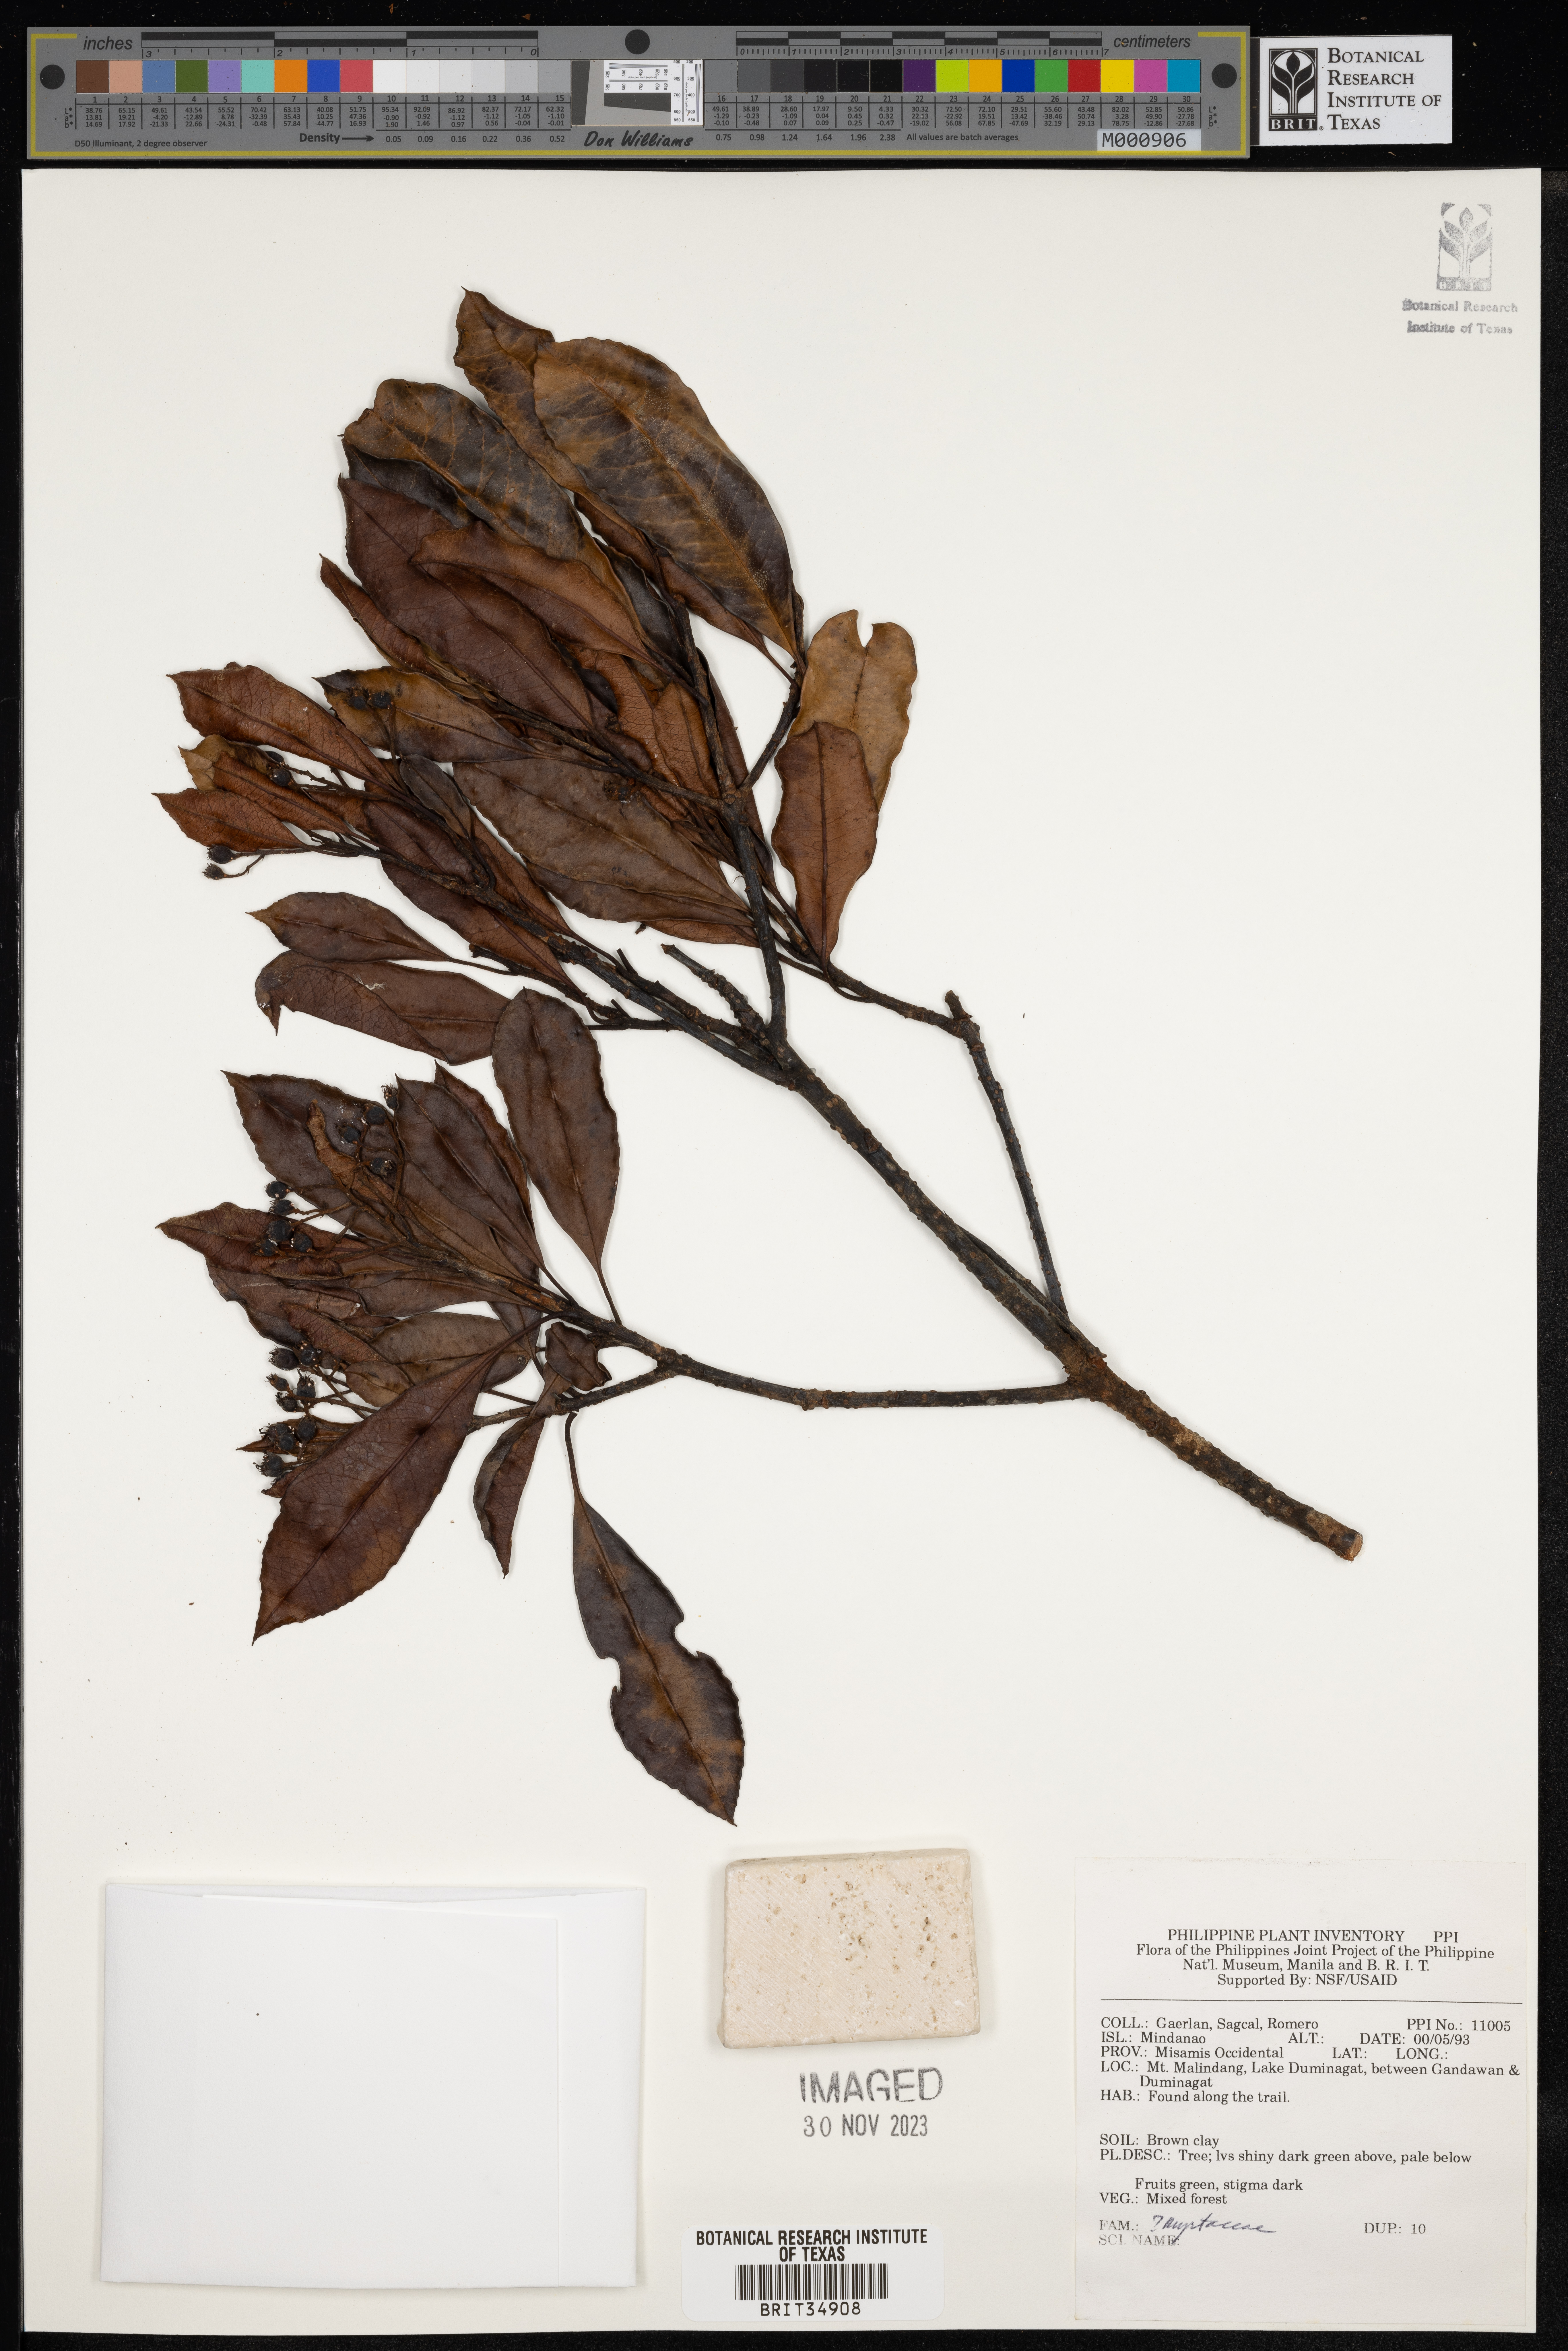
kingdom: Plantae
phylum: Tracheophyta
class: Magnoliopsida
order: Myrtales
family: Myrtaceae
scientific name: Myrtaceae
